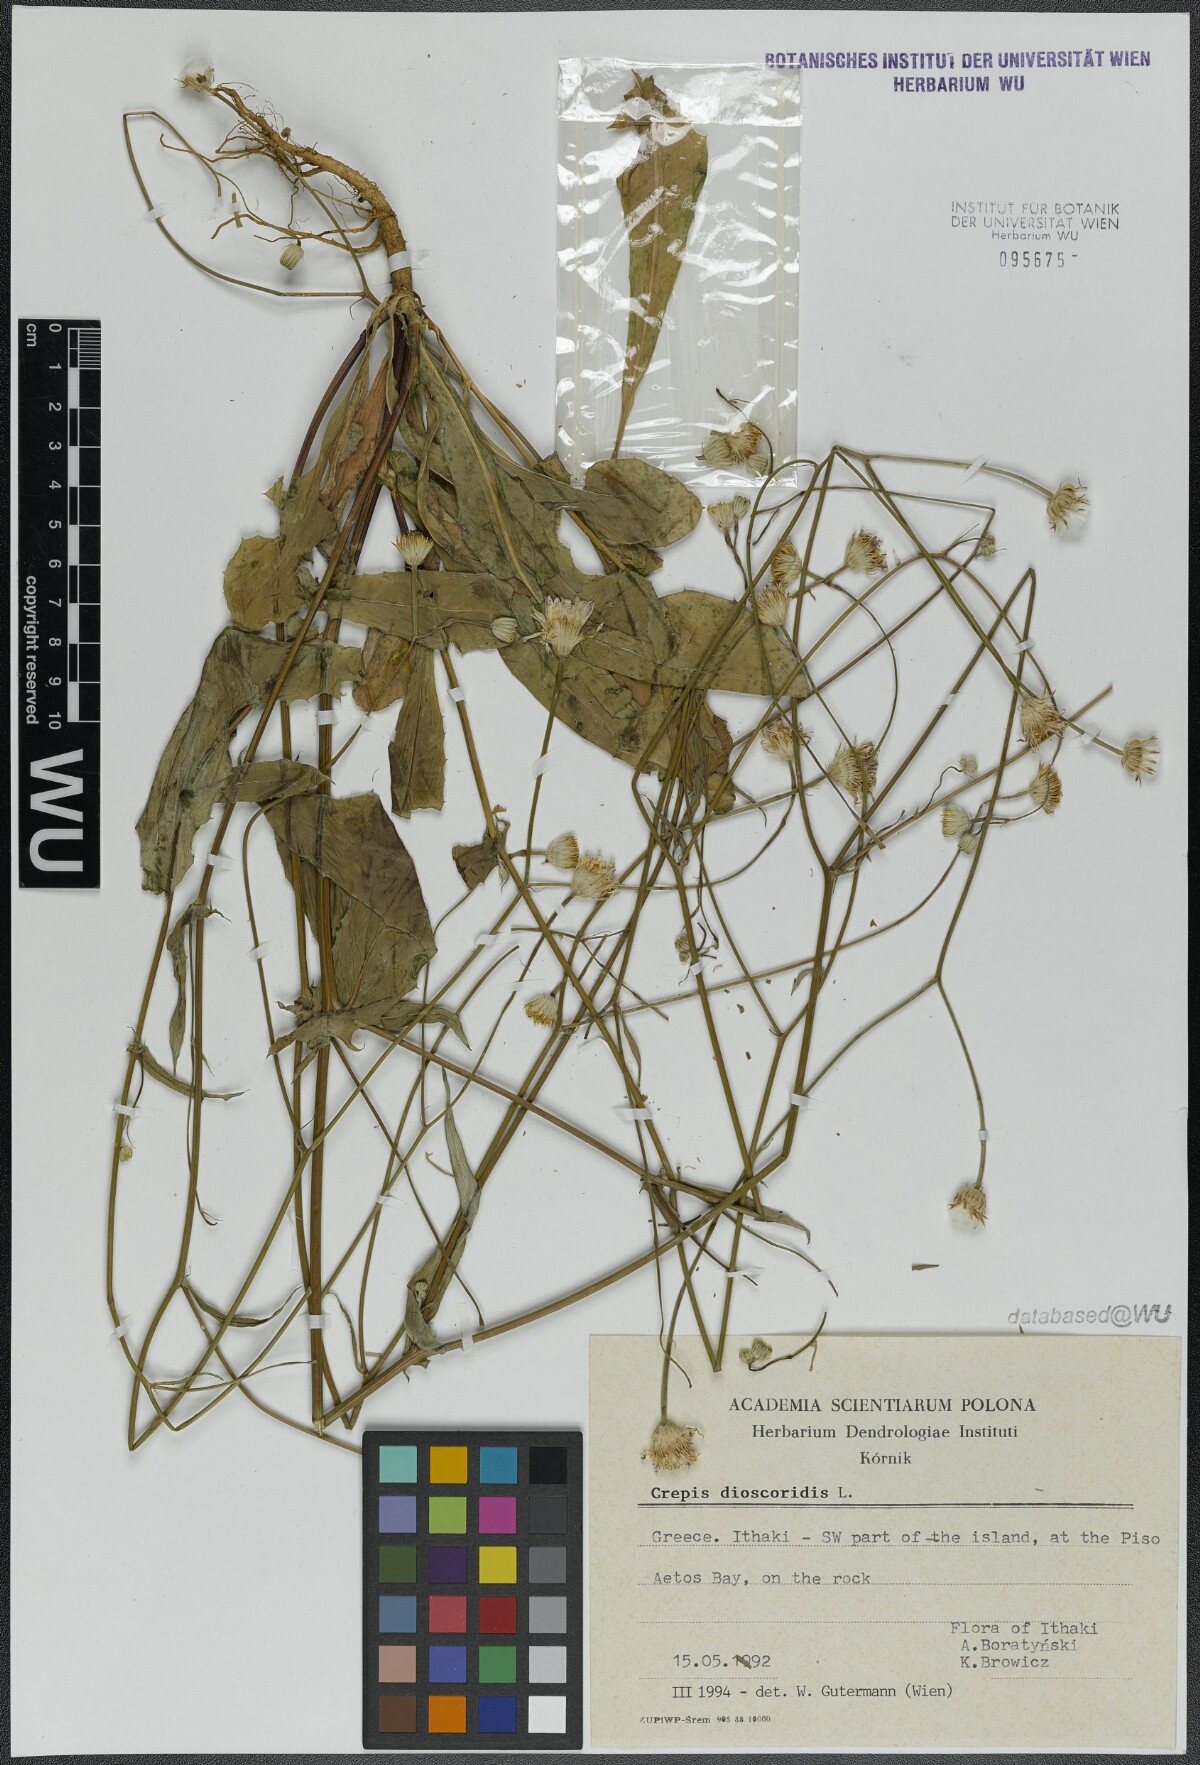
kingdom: Plantae
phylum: Tracheophyta
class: Magnoliopsida
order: Asterales
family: Asteraceae
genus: Crepis
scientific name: Crepis dioscoridis
